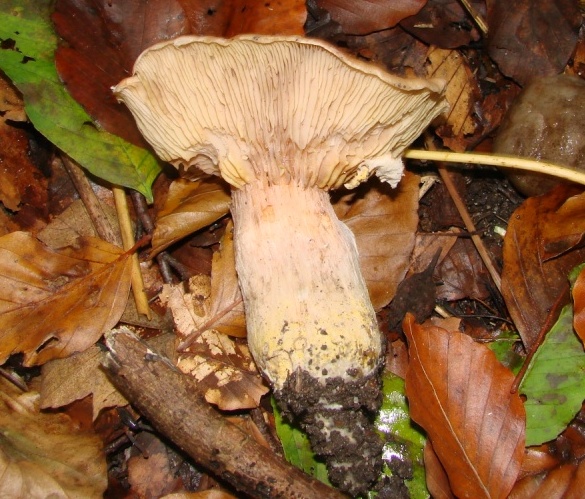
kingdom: Fungi
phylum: Basidiomycota
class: Agaricomycetes
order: Agaricales
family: Physalacriaceae
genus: Armillaria
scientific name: Armillaria lutea
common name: køllestokket honningsvamp
